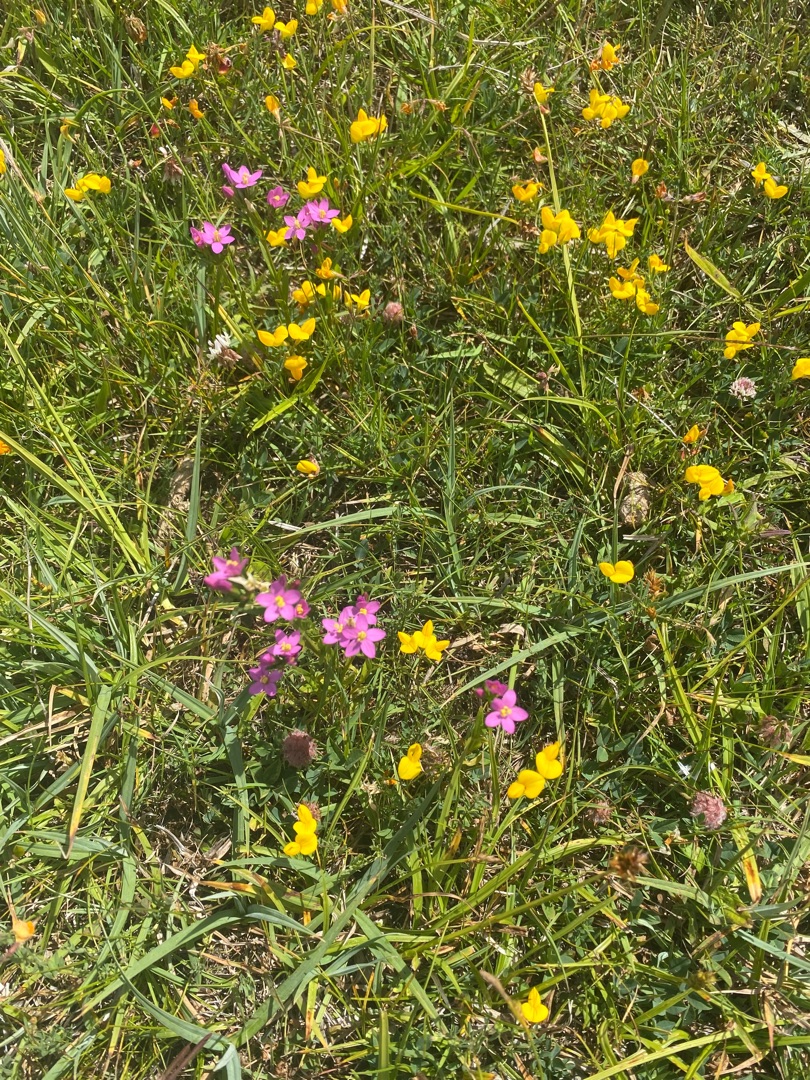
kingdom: Plantae
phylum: Tracheophyta
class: Magnoliopsida
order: Gentianales
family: Gentianaceae
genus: Centaurium
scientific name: Centaurium littorale
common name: Strand-tusindgylden
